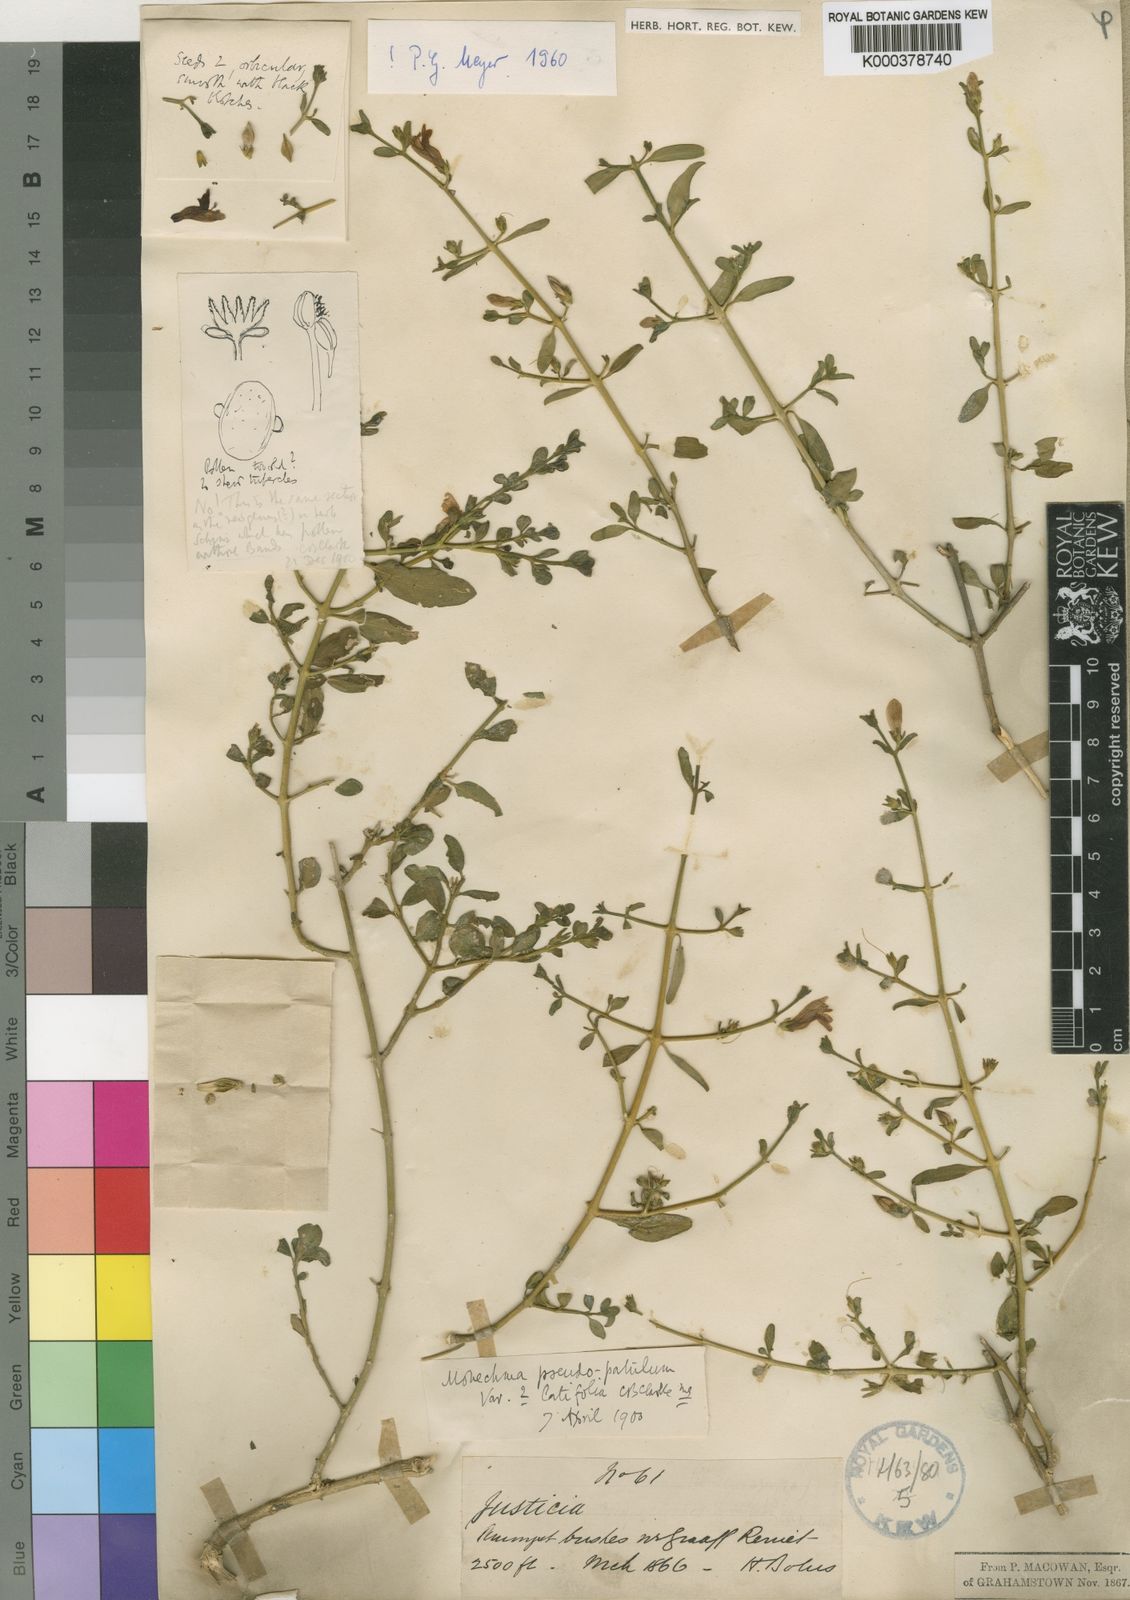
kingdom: Plantae
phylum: Tracheophyta
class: Magnoliopsida
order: Lamiales
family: Acanthaceae
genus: Monechma
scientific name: Monechma spartioides
